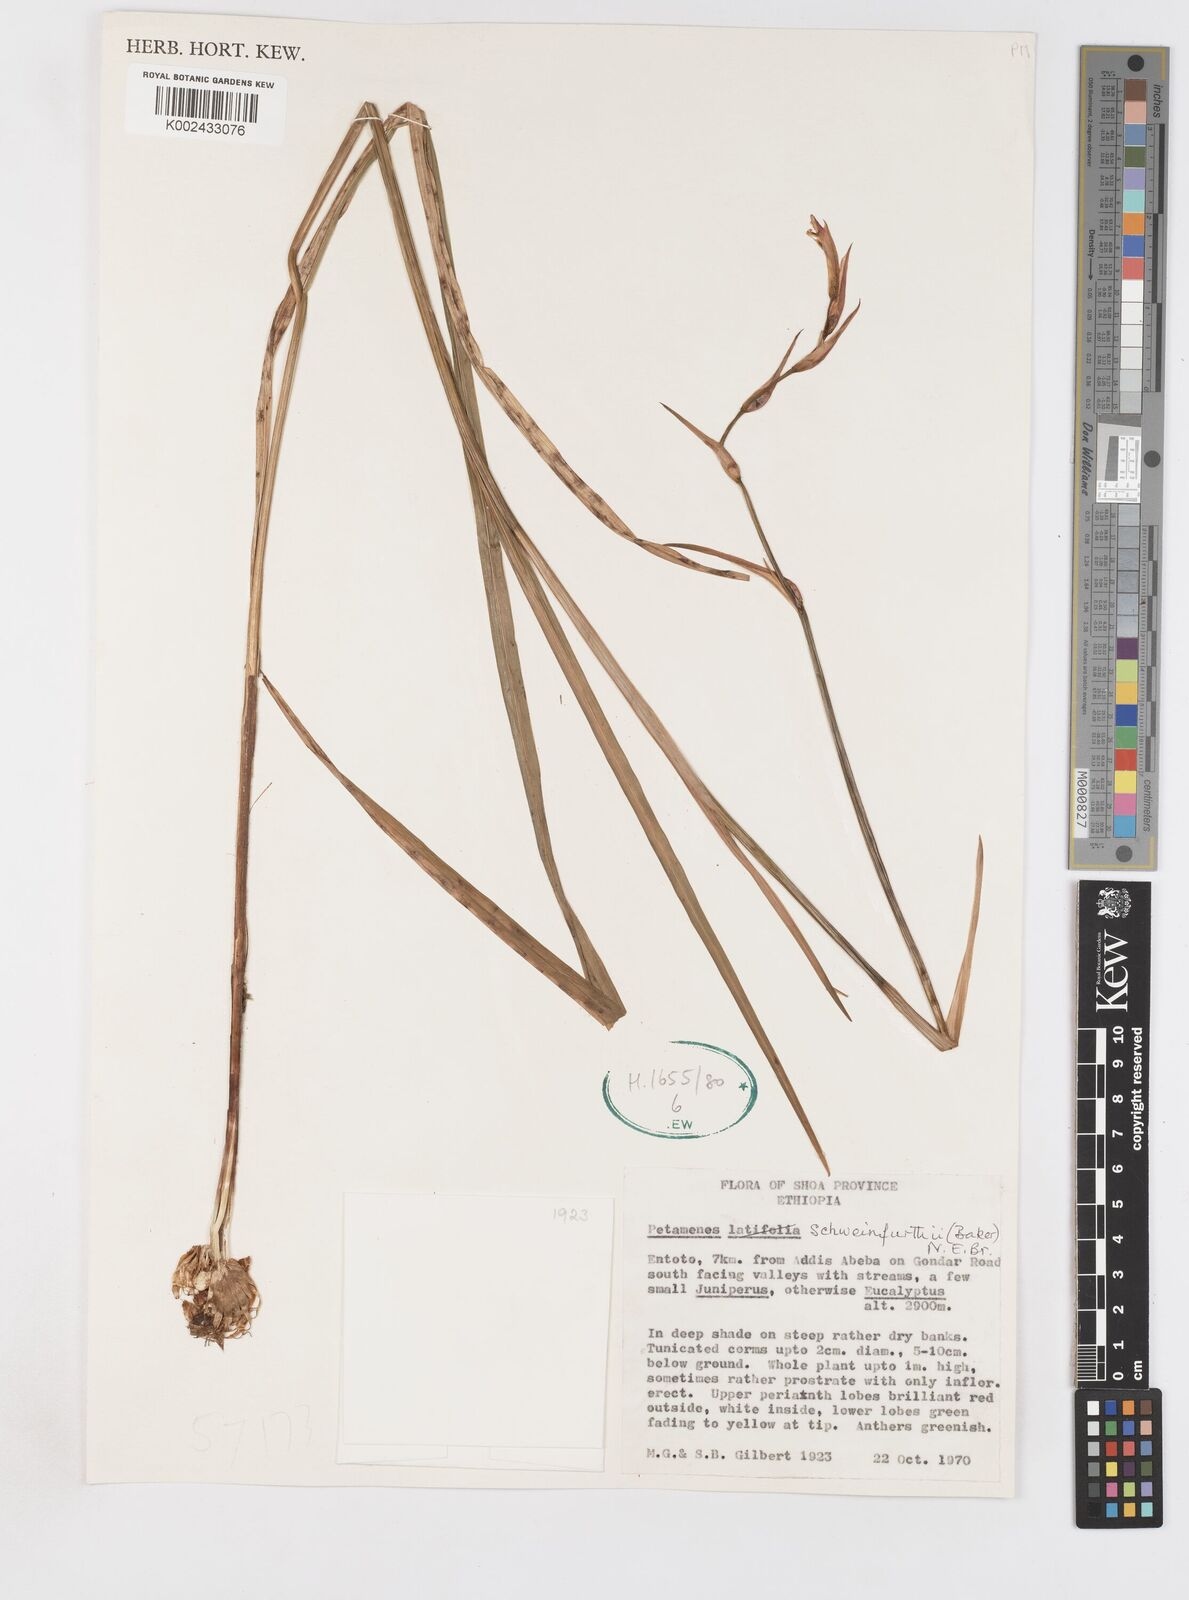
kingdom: Plantae
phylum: Tracheophyta
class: Liliopsida
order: Asparagales
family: Iridaceae
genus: Gladiolus
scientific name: Gladiolus schweinfurthii
